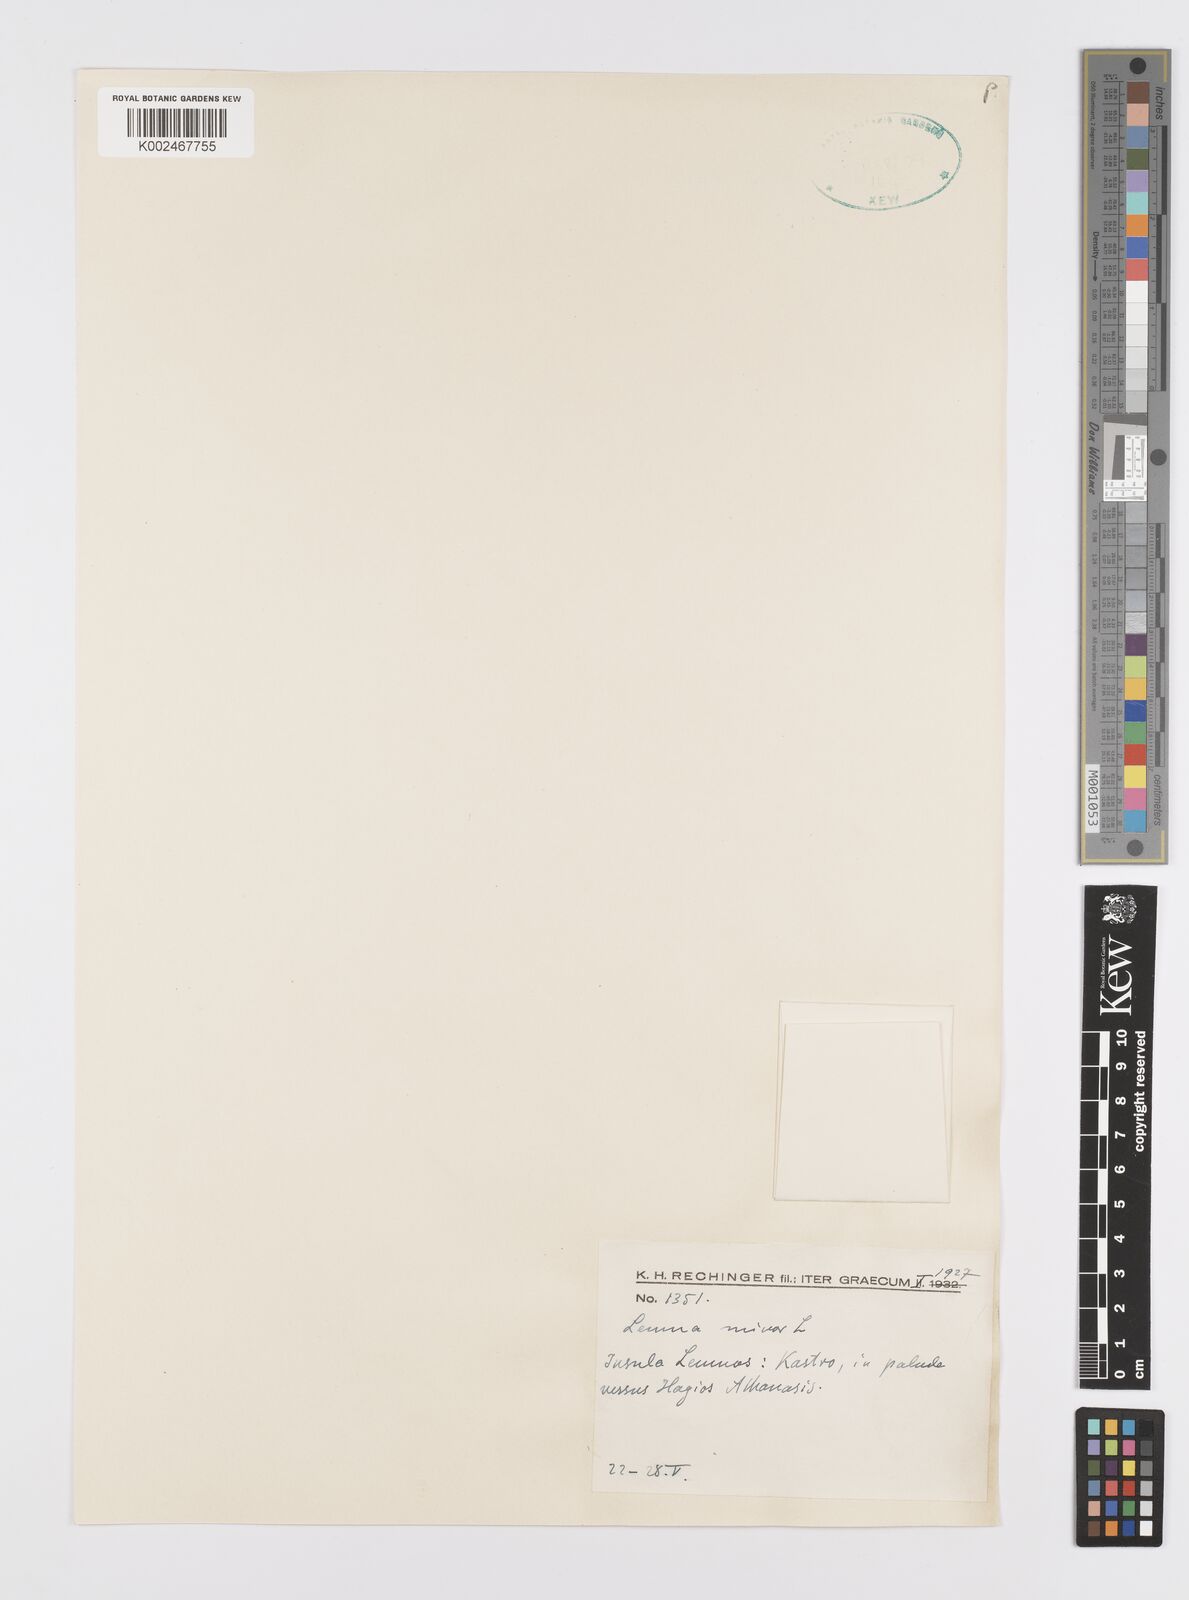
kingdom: Plantae
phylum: Tracheophyta
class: Liliopsida
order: Alismatales
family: Araceae
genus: Lemna
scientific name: Lemna minor
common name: Common duckweed
